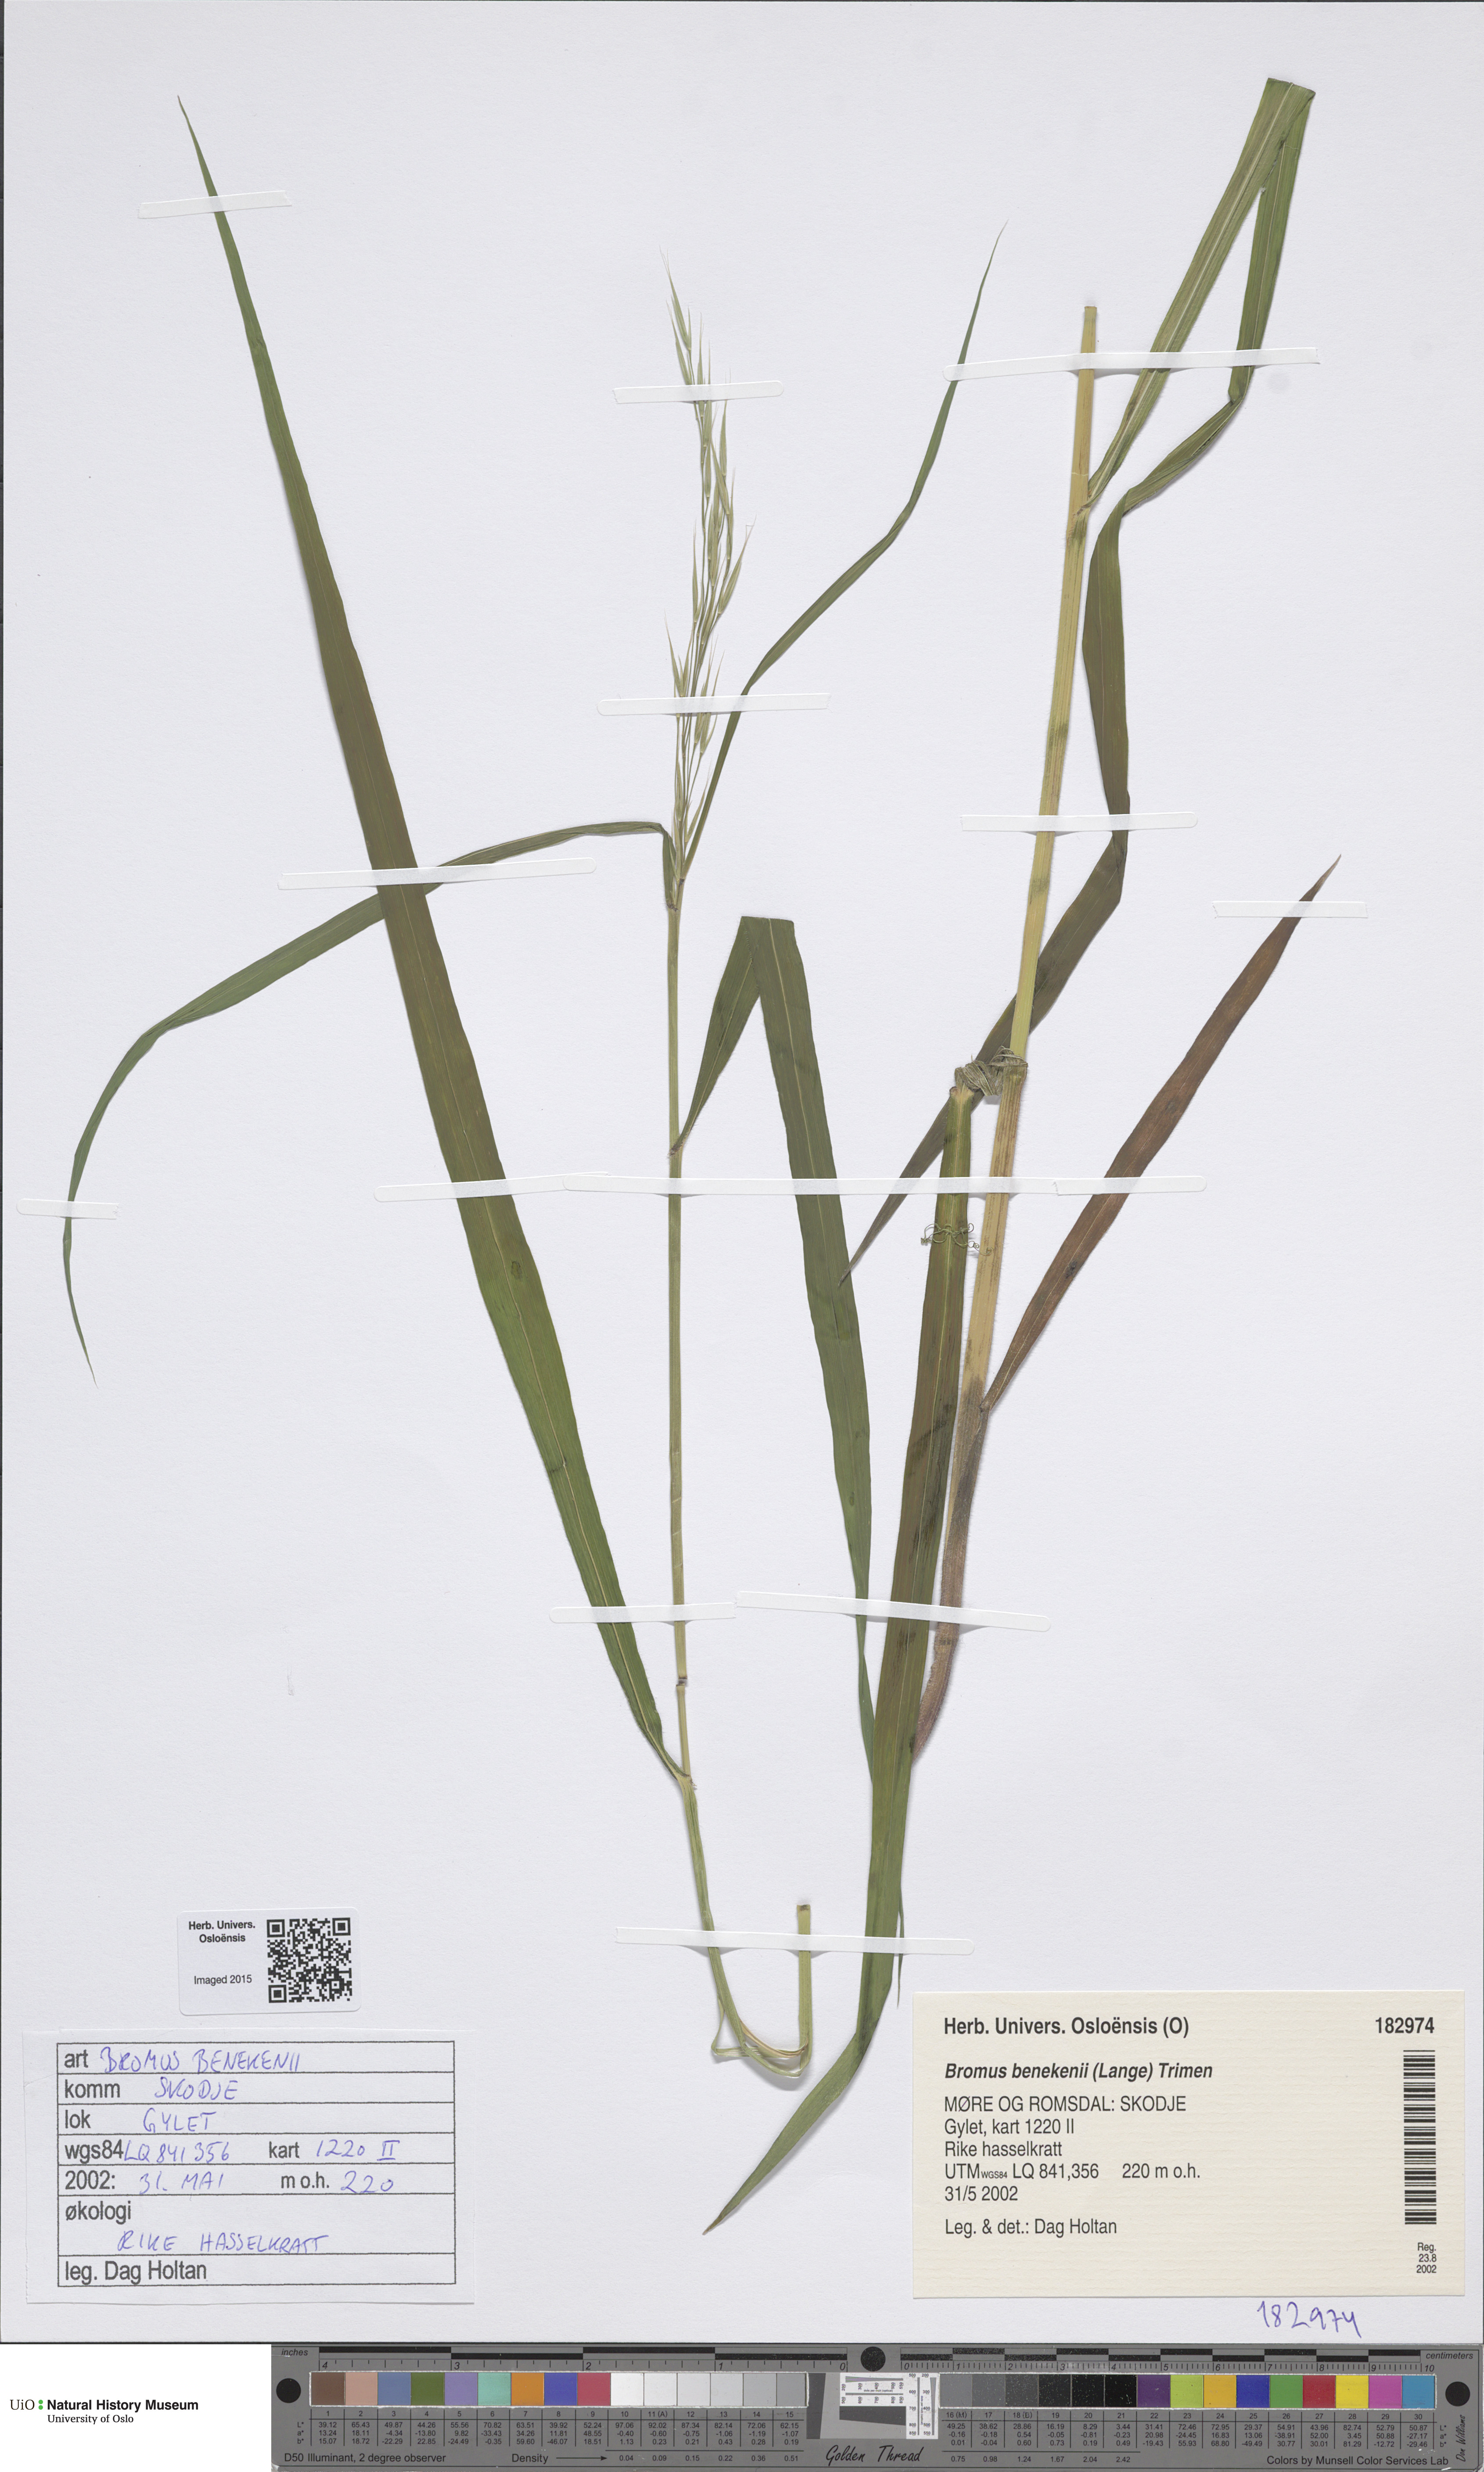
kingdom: Plantae
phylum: Tracheophyta
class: Liliopsida
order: Poales
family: Poaceae
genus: Bromus
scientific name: Bromus benekenii
